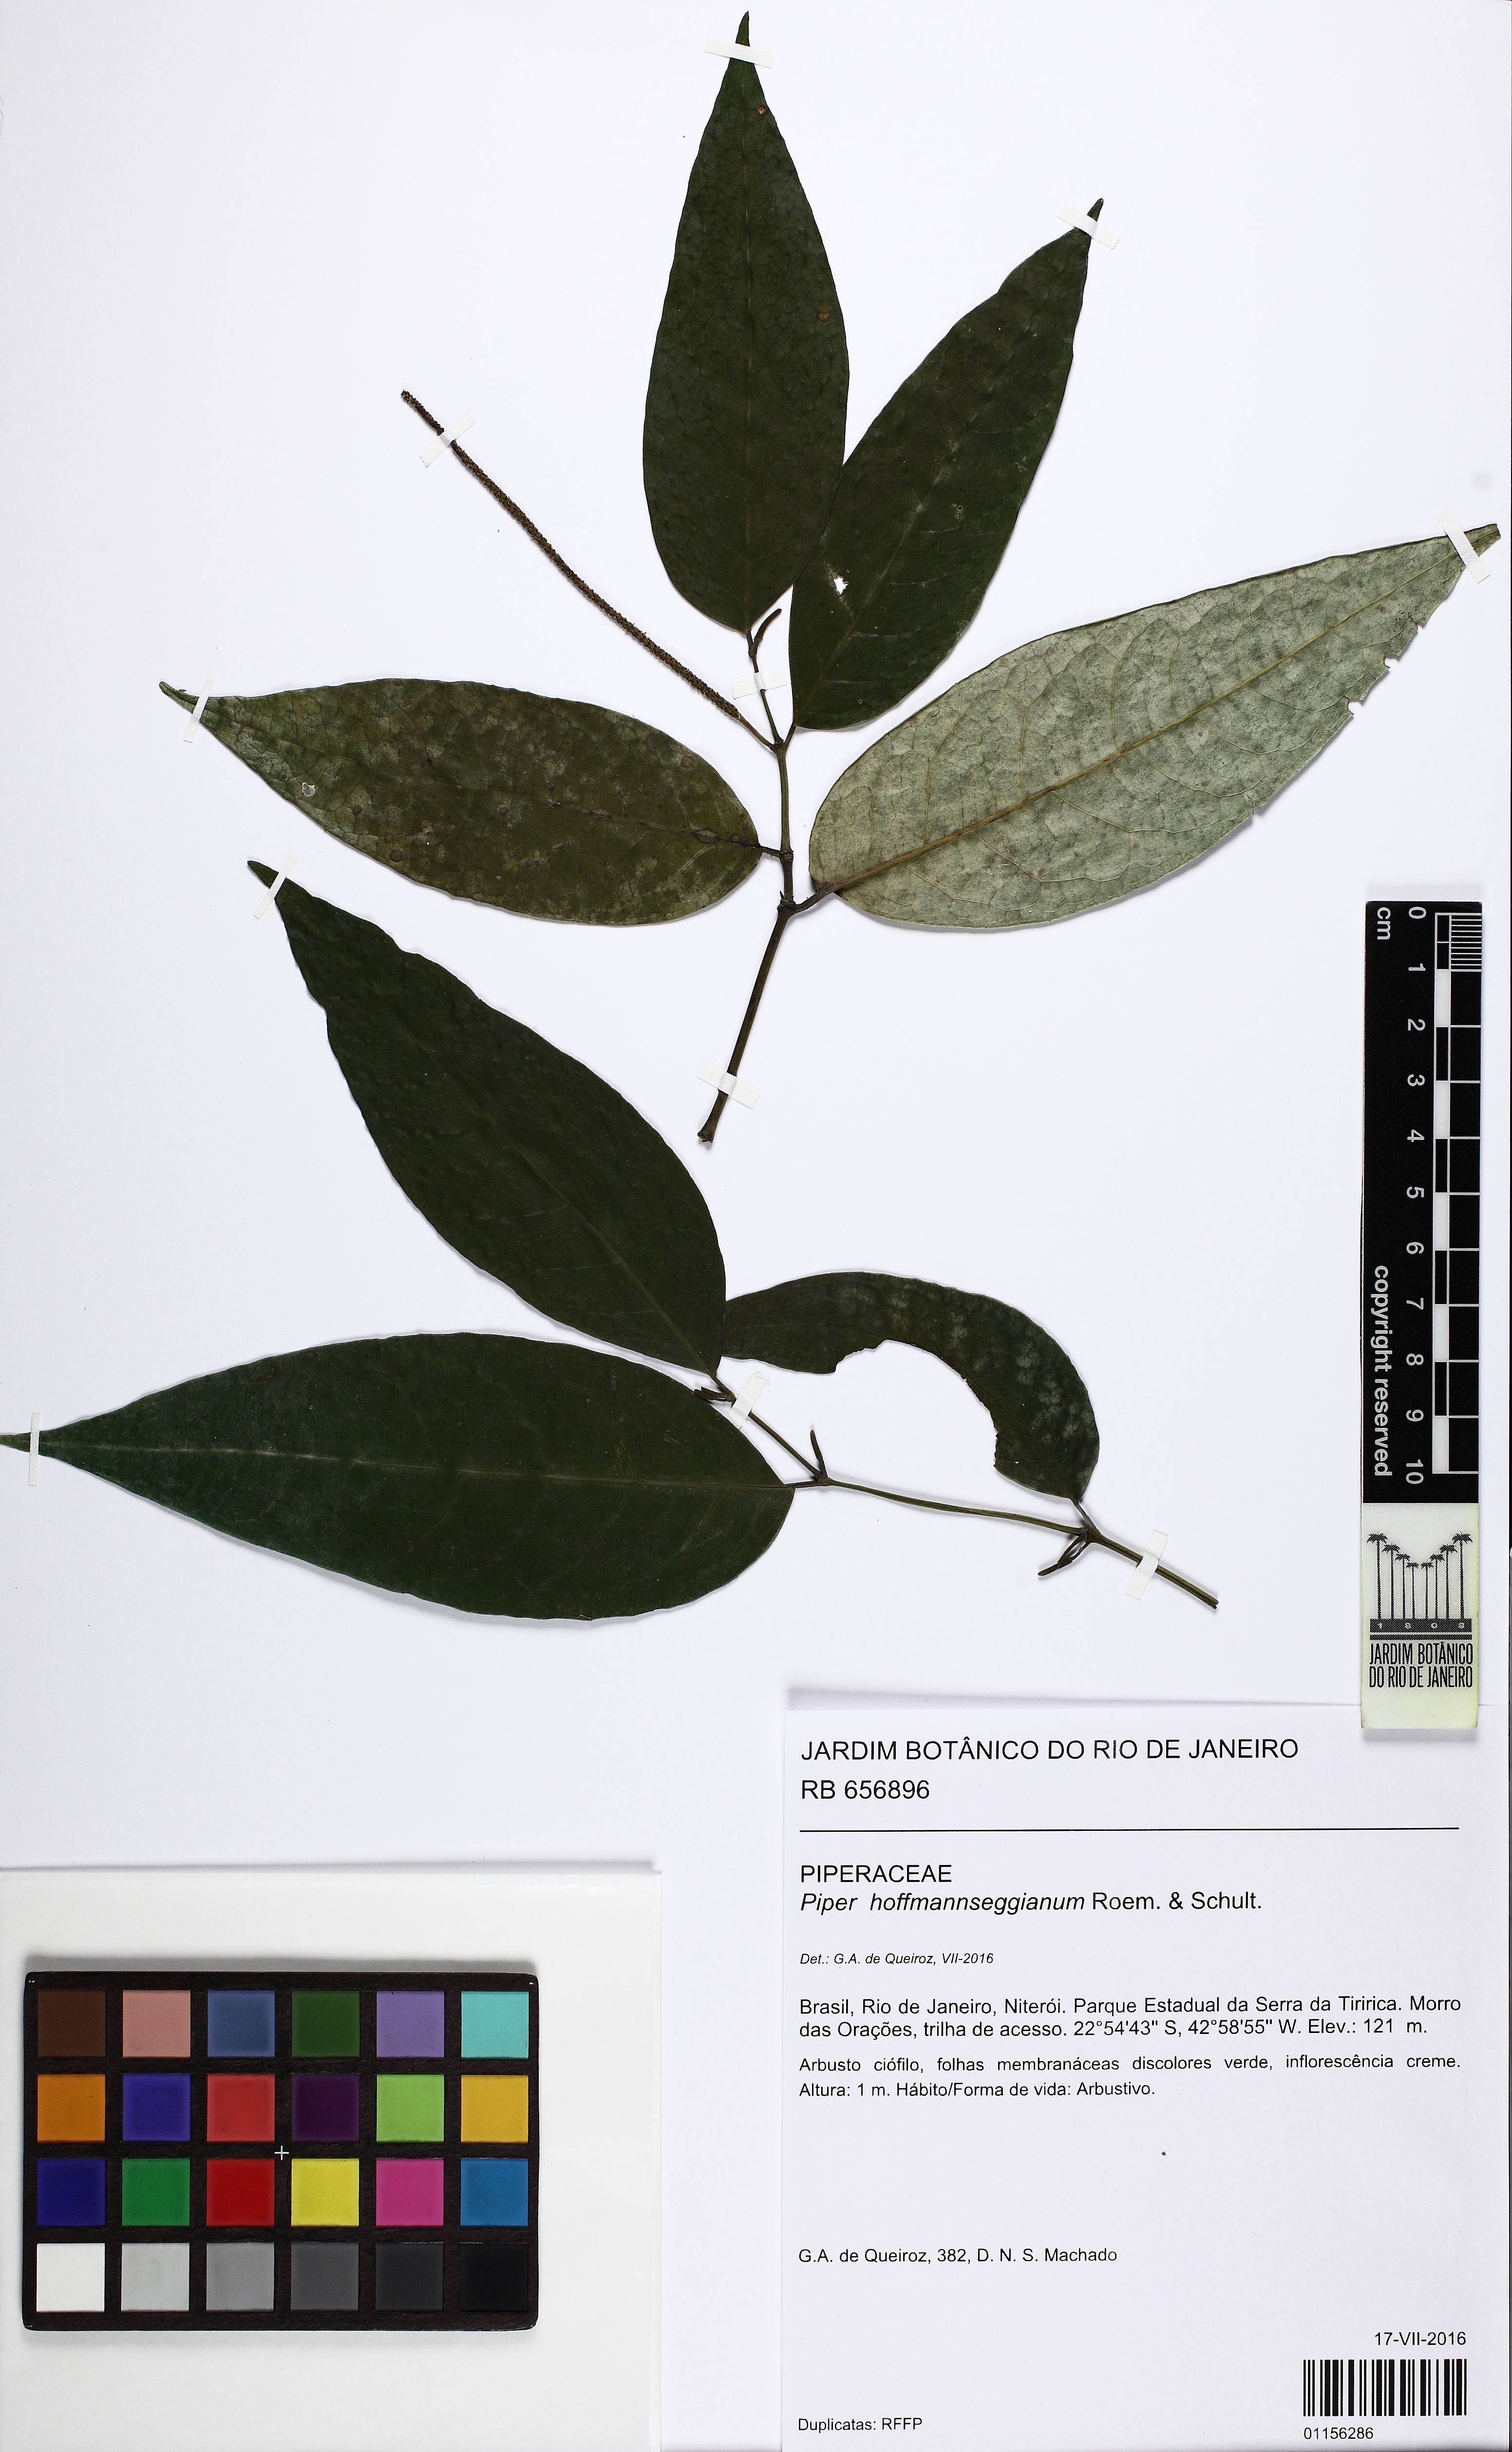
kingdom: Plantae
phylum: Tracheophyta
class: Magnoliopsida
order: Piperales
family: Piperaceae
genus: Piper
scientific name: Piper hoffmannseggianum
